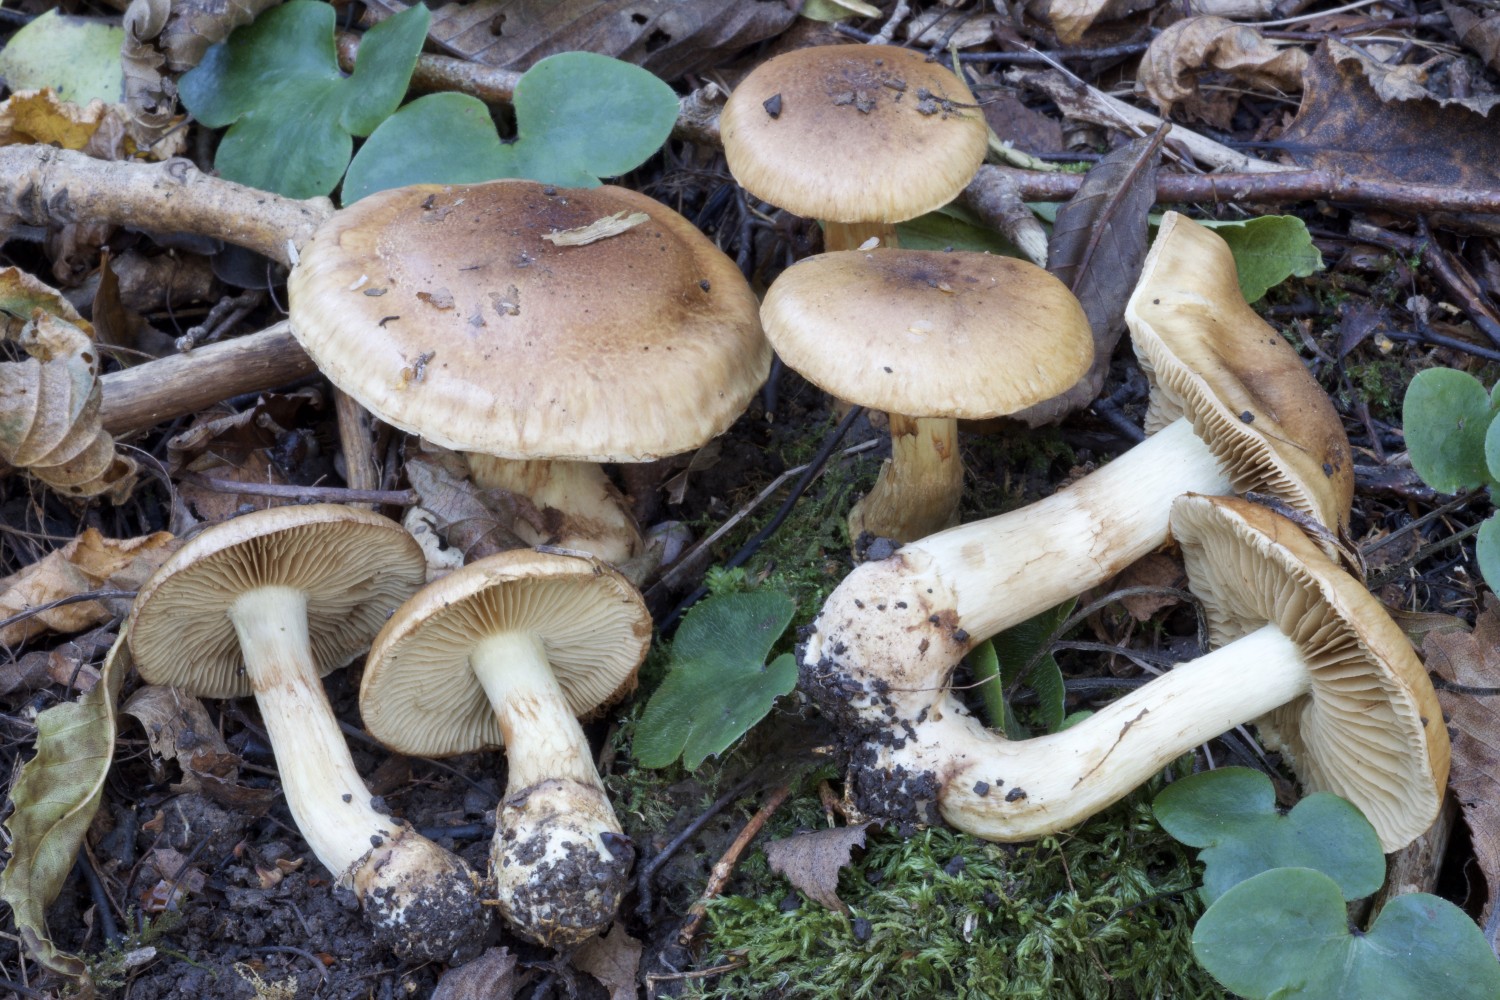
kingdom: Fungi
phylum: Basidiomycota
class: Agaricomycetes
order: Agaricales
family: Cortinariaceae
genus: Cortinarius
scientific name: Cortinarius nanceiensis
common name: banan-slørhat
